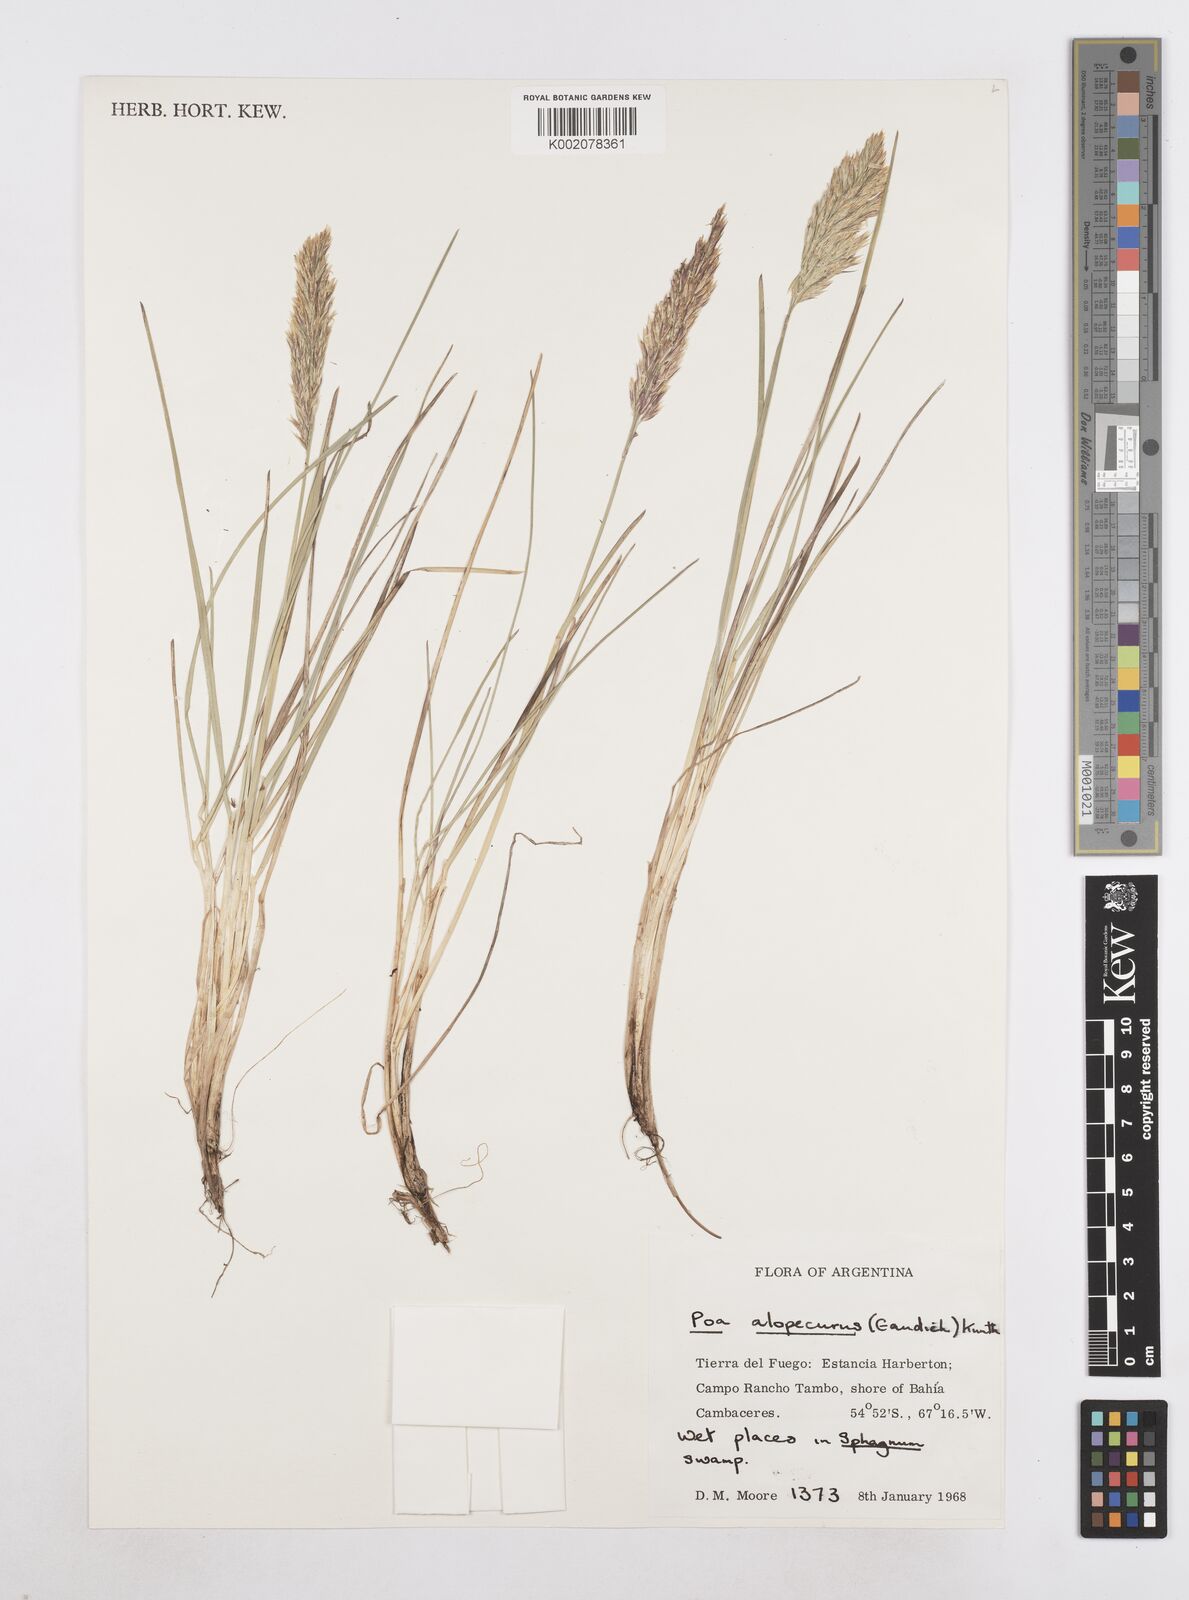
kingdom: Plantae
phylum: Tracheophyta
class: Liliopsida
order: Poales
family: Poaceae
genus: Poa
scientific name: Poa alopecurus
